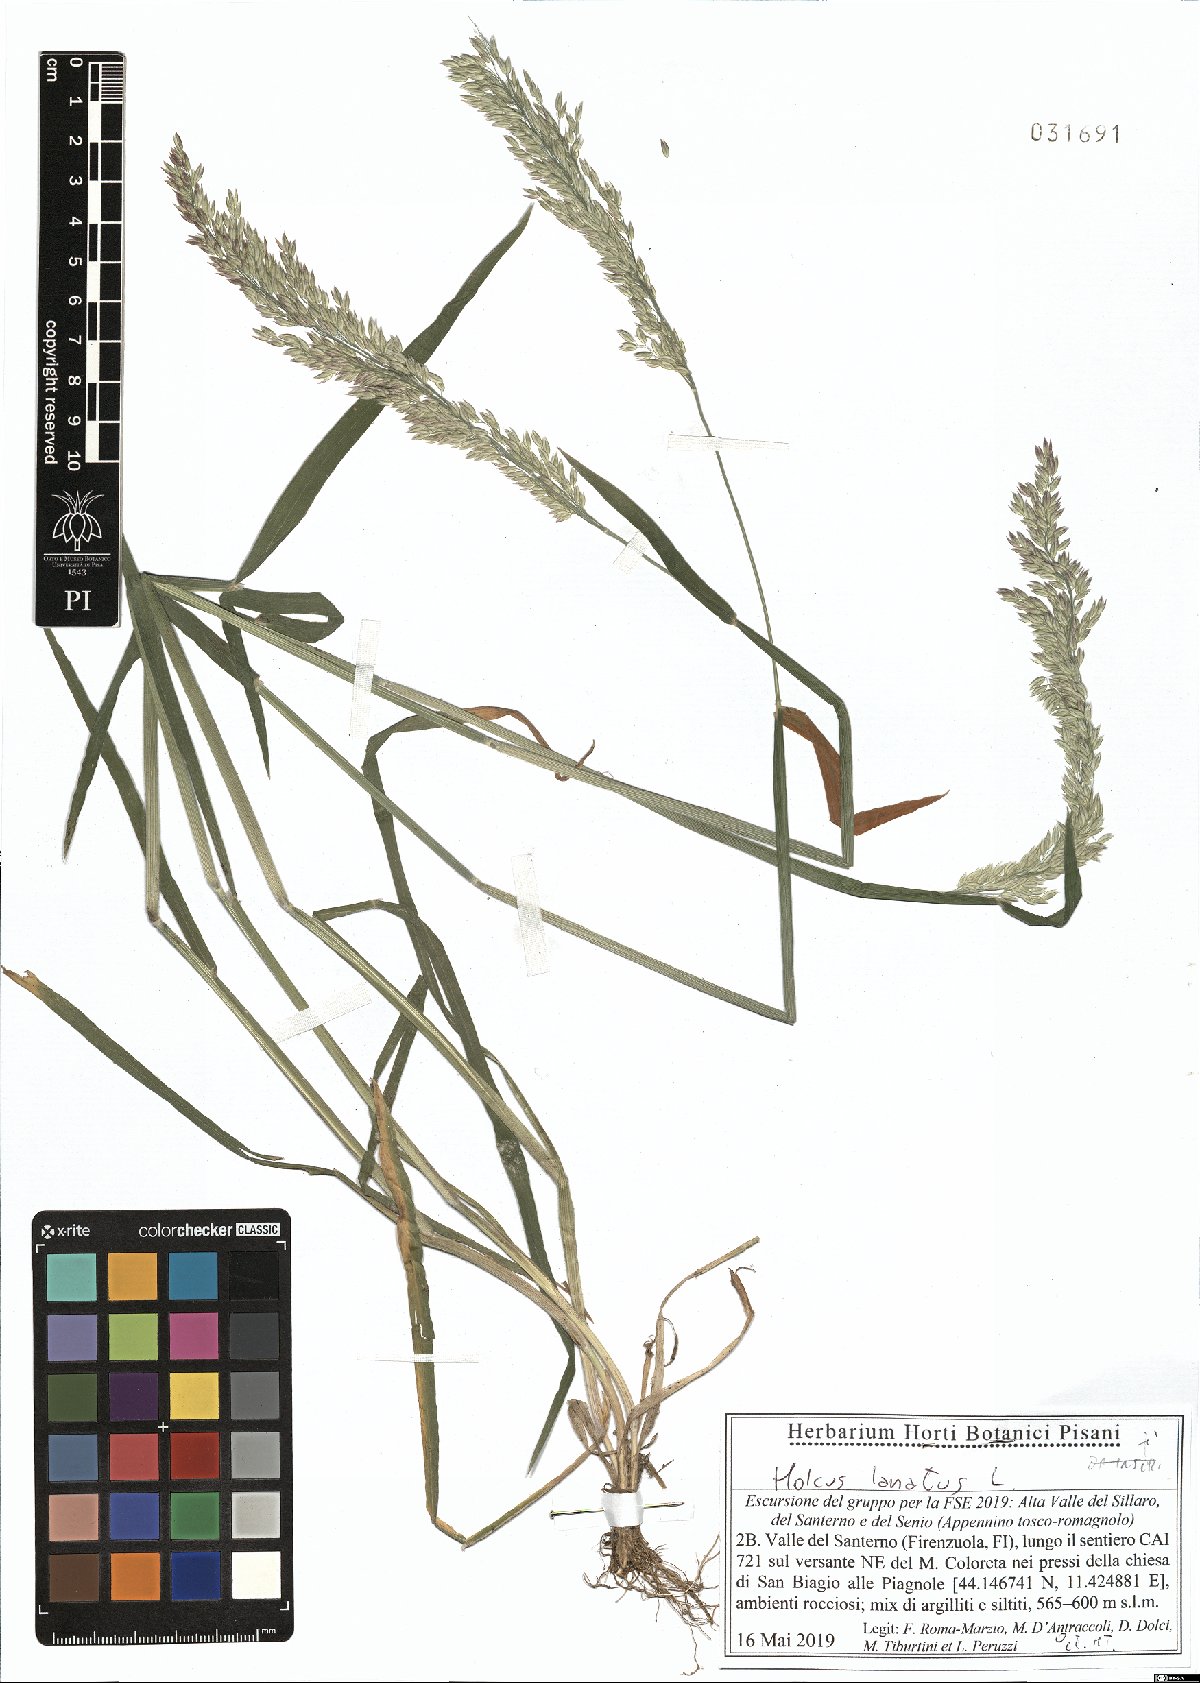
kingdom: Plantae
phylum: Tracheophyta
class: Liliopsida
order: Poales
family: Poaceae
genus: Holcus
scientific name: Holcus lanatus
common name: Yorkshire-fog
